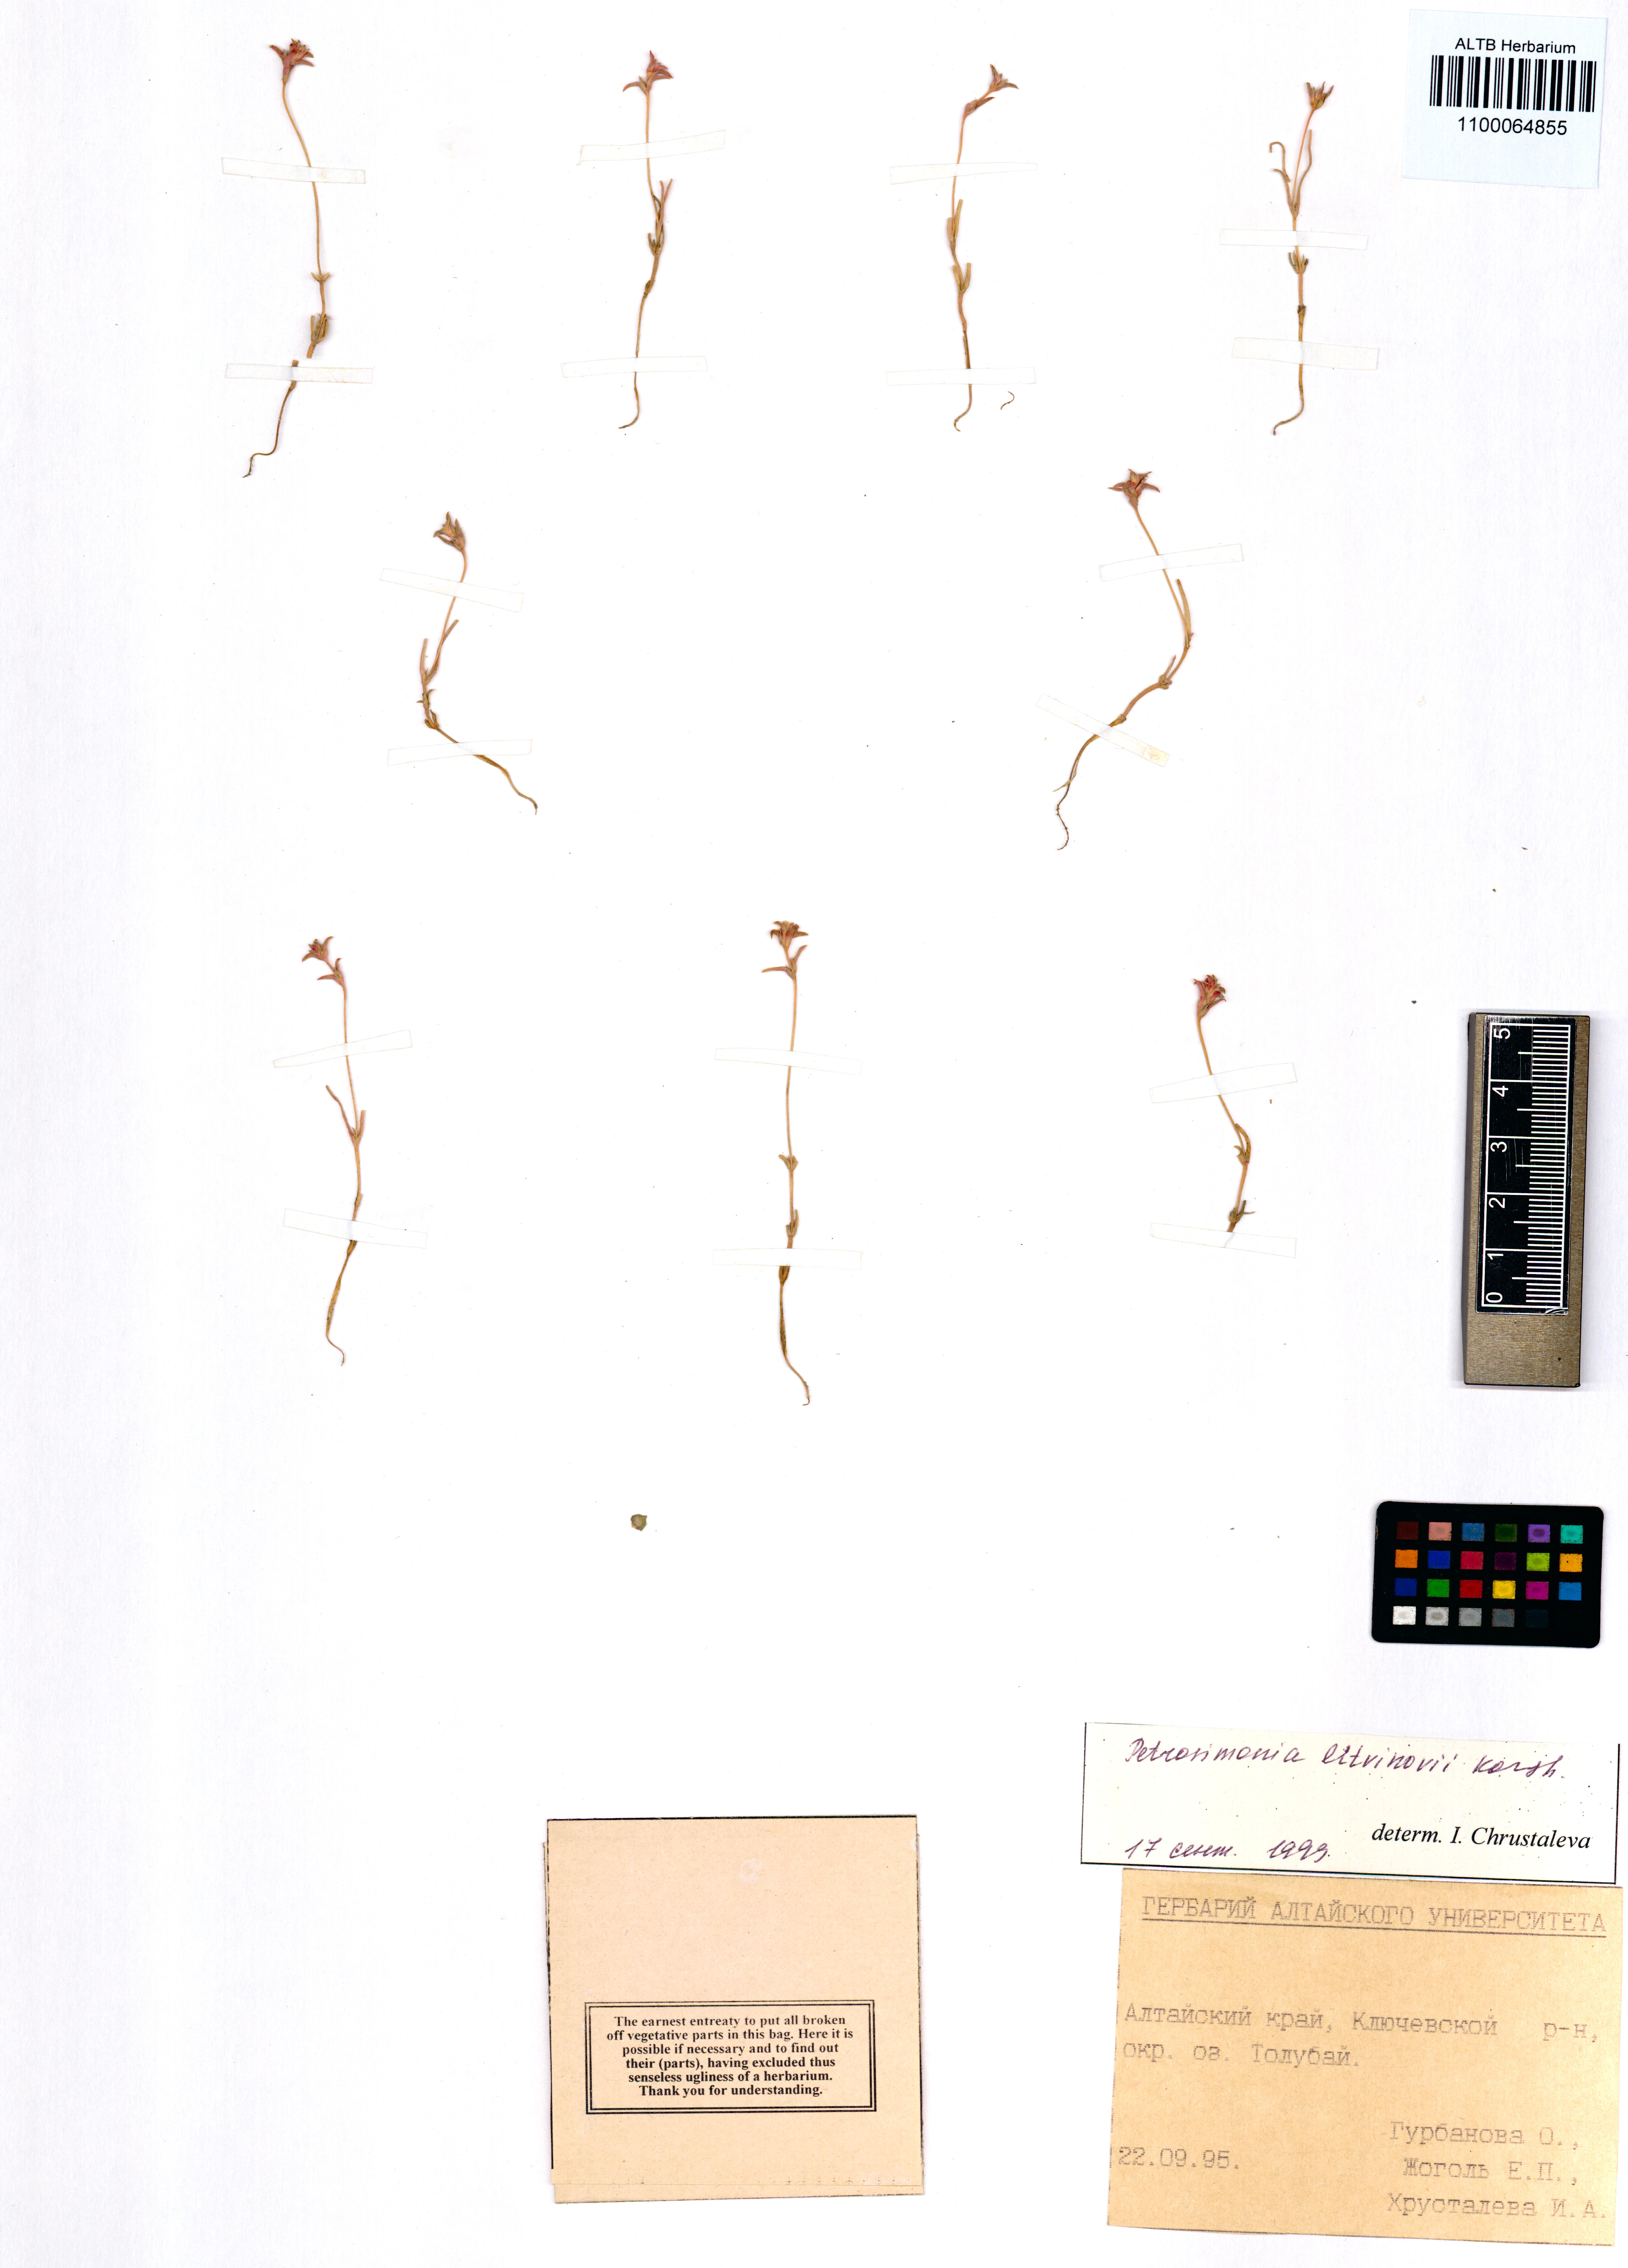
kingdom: Plantae
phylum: Tracheophyta
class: Magnoliopsida
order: Caryophyllales
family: Amaranthaceae
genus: Petrosimonia
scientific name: Petrosimonia litvinowi
